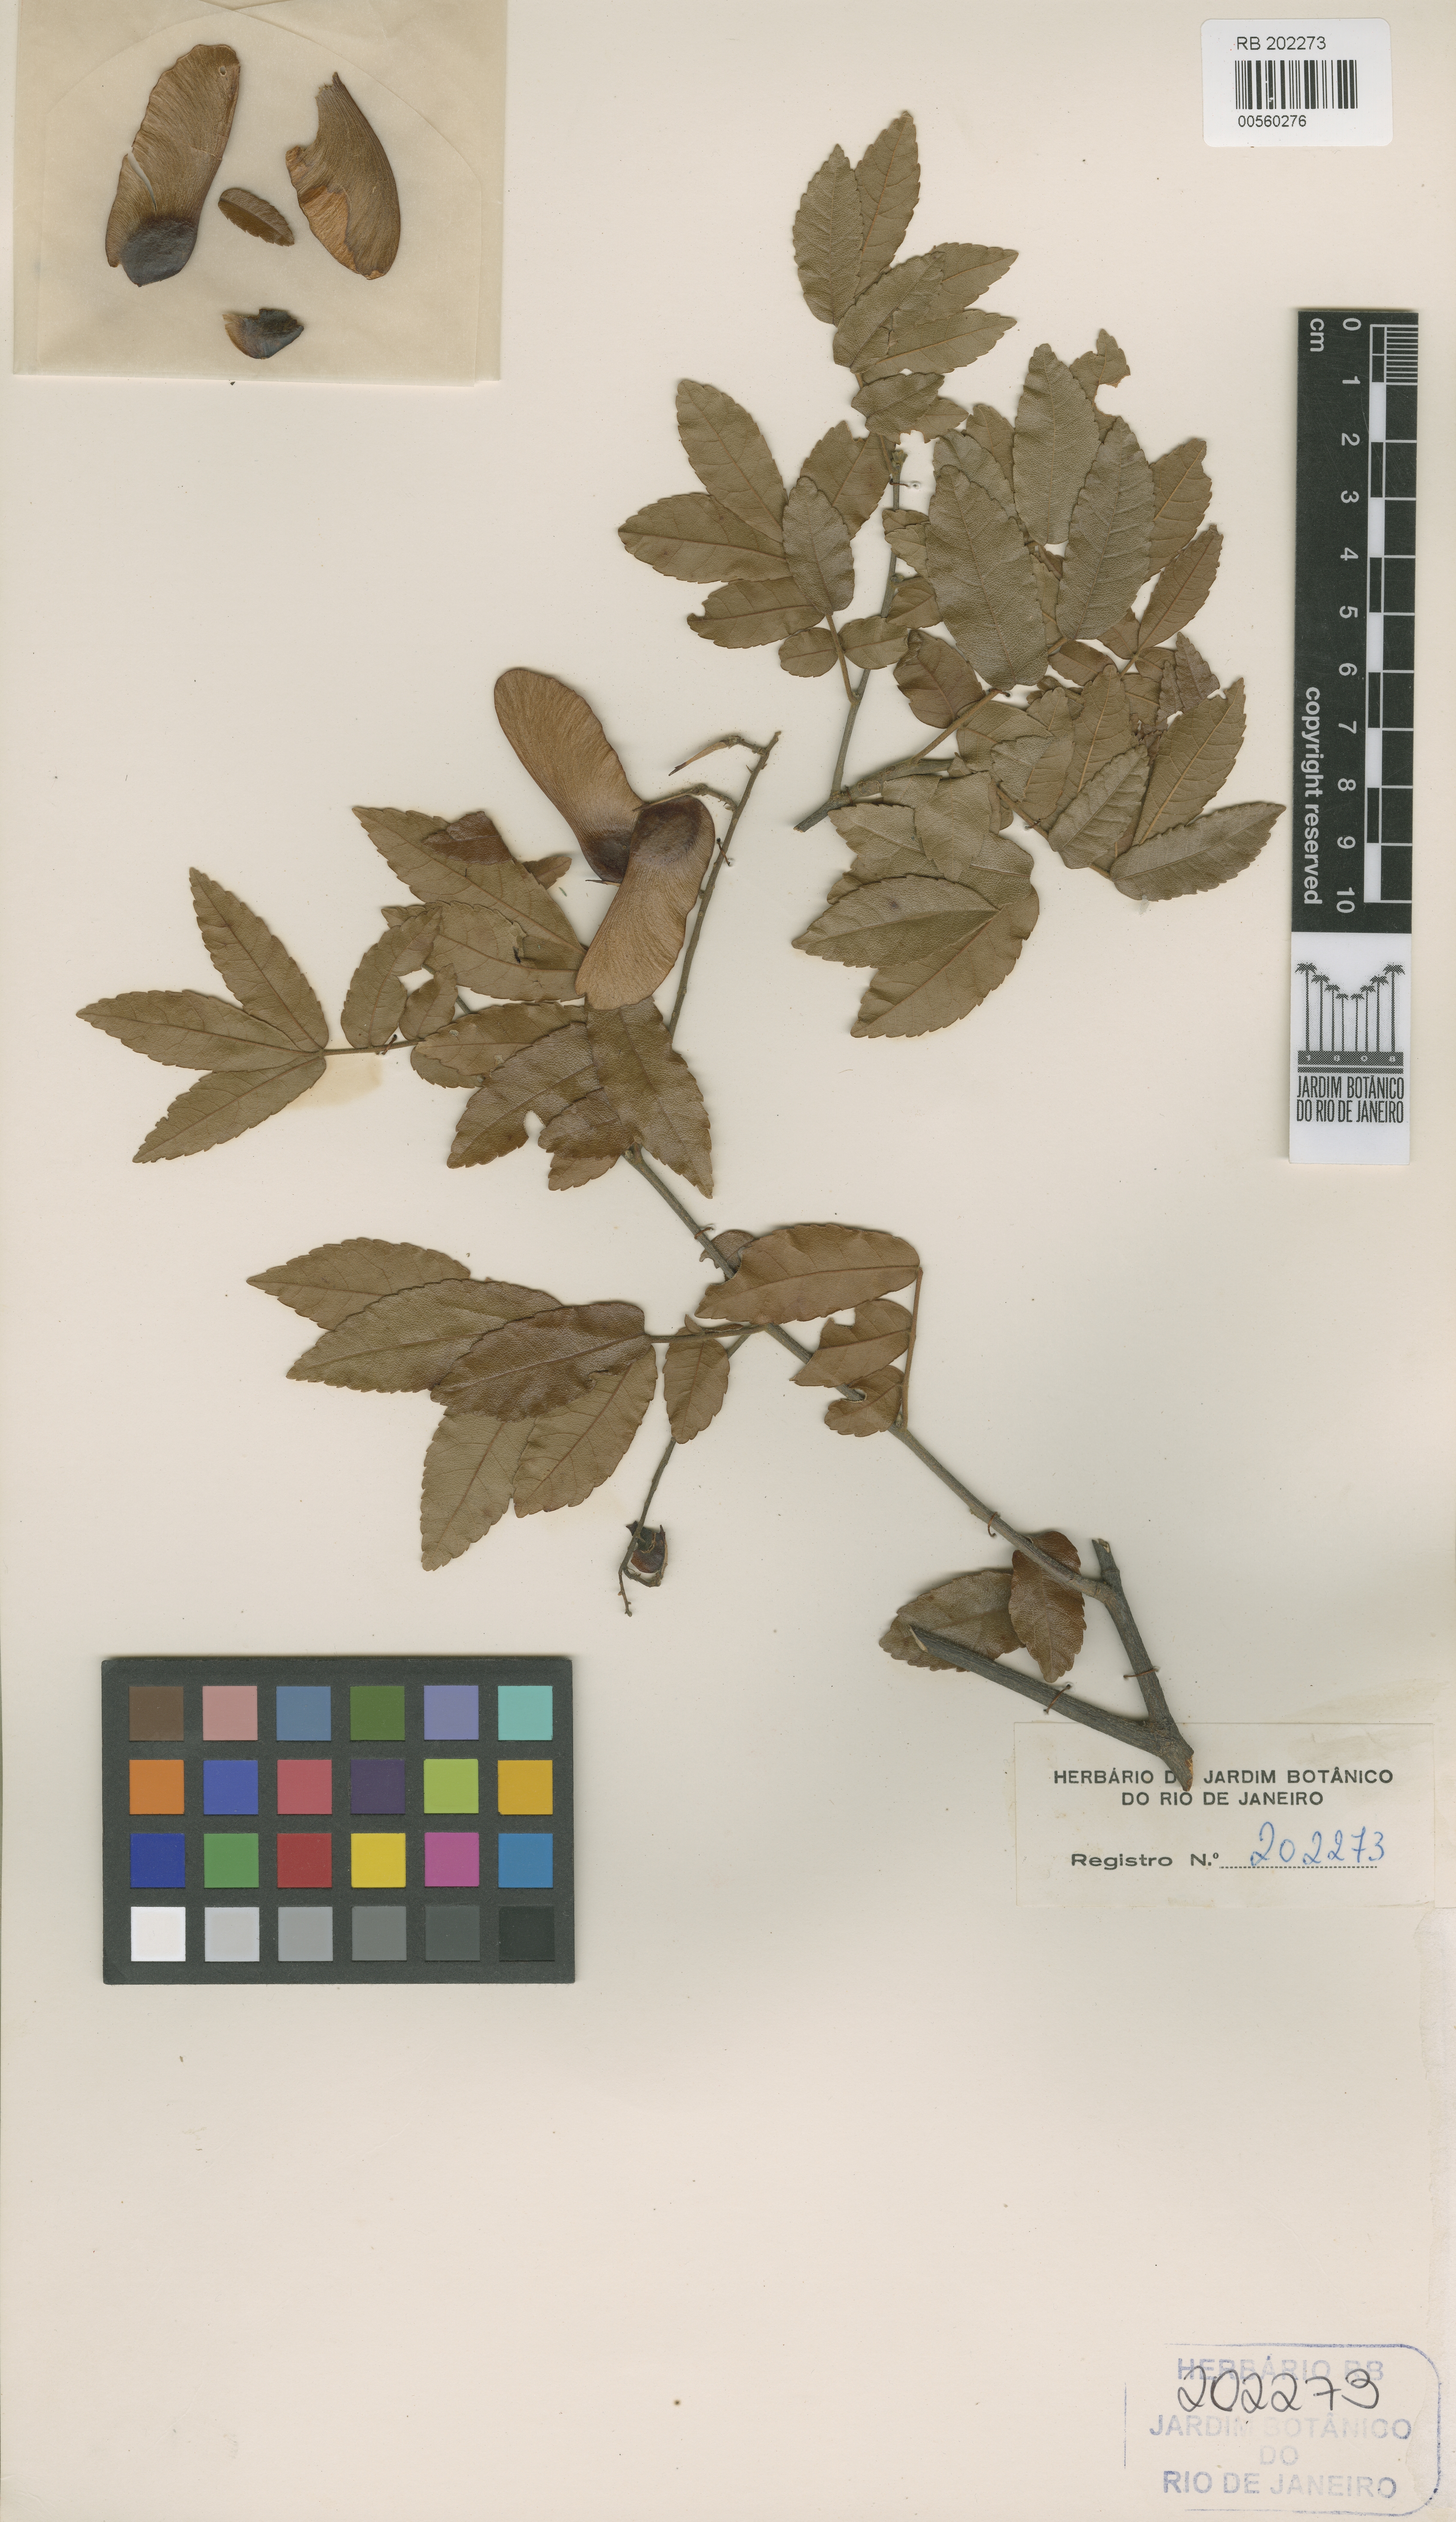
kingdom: Plantae
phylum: Tracheophyta
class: Magnoliopsida
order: Sapindales
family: Sapindaceae
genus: Diatenopteryx
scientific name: Diatenopteryx grazielae
